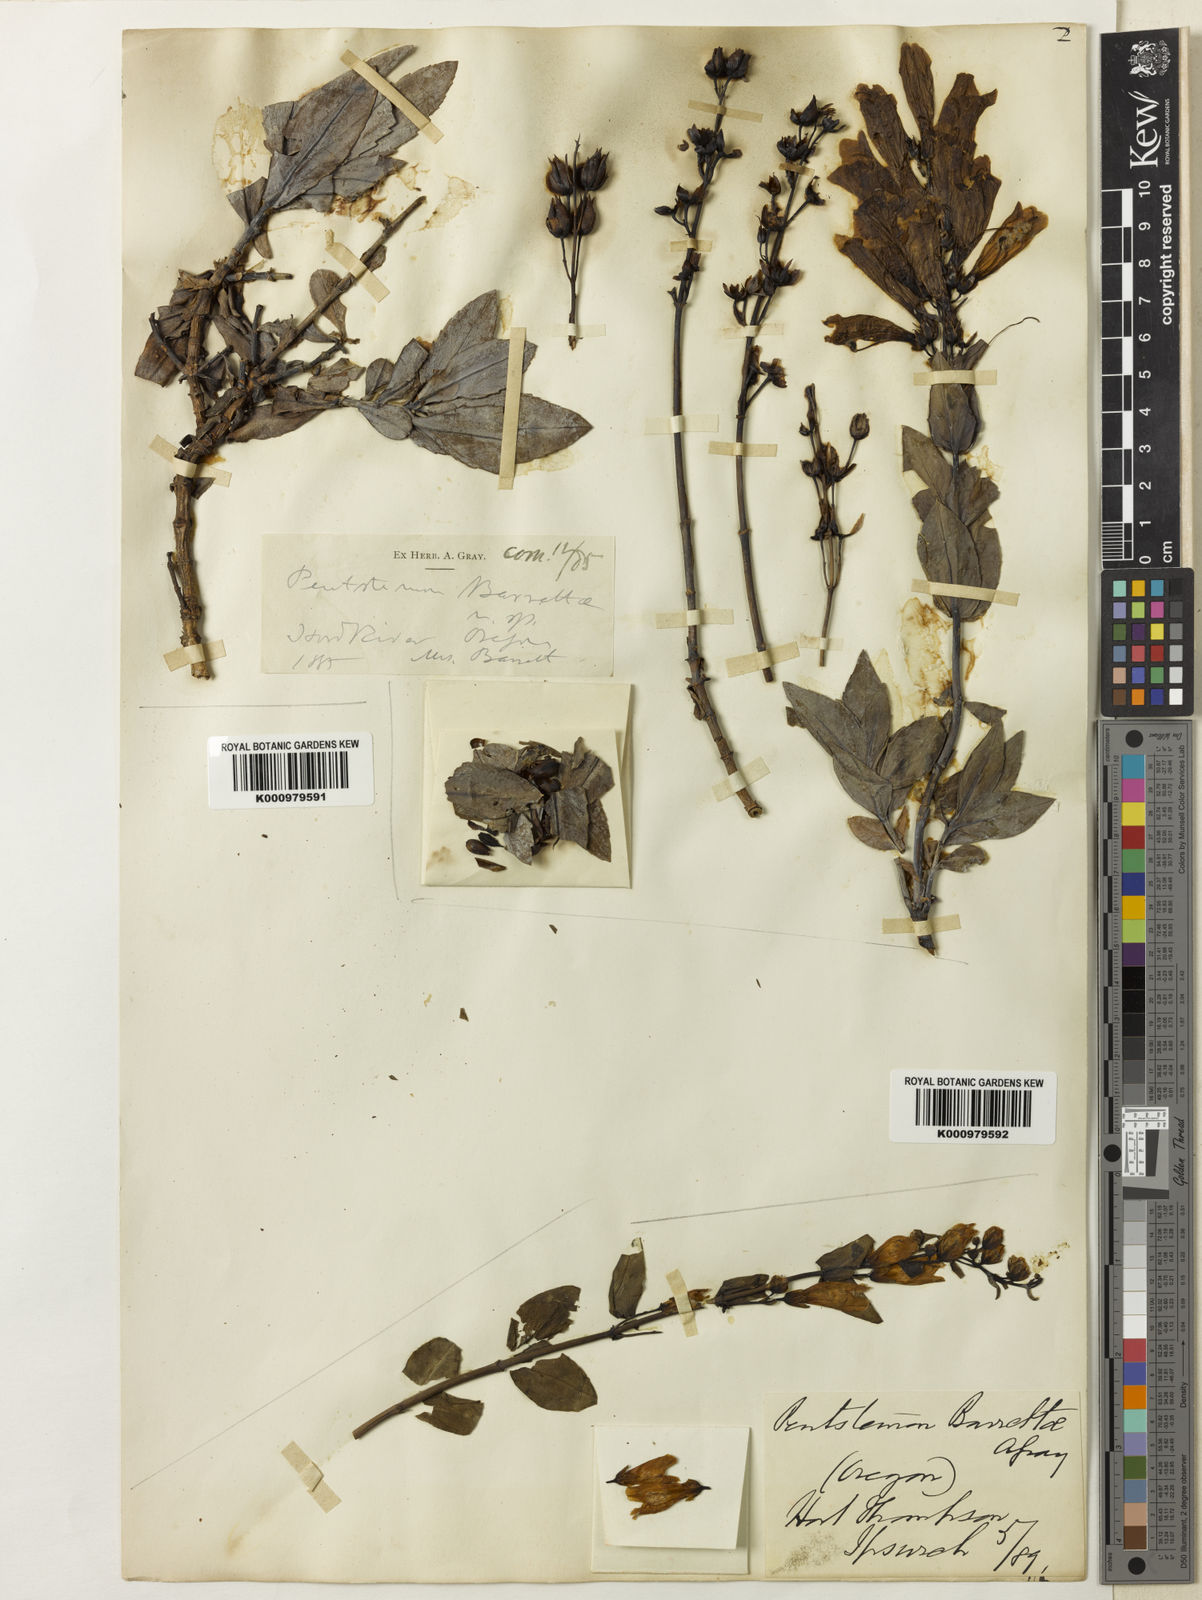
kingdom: Plantae
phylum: Tracheophyta
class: Magnoliopsida
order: Lamiales
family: Plantaginaceae
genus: Penstemon
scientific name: Penstemon
